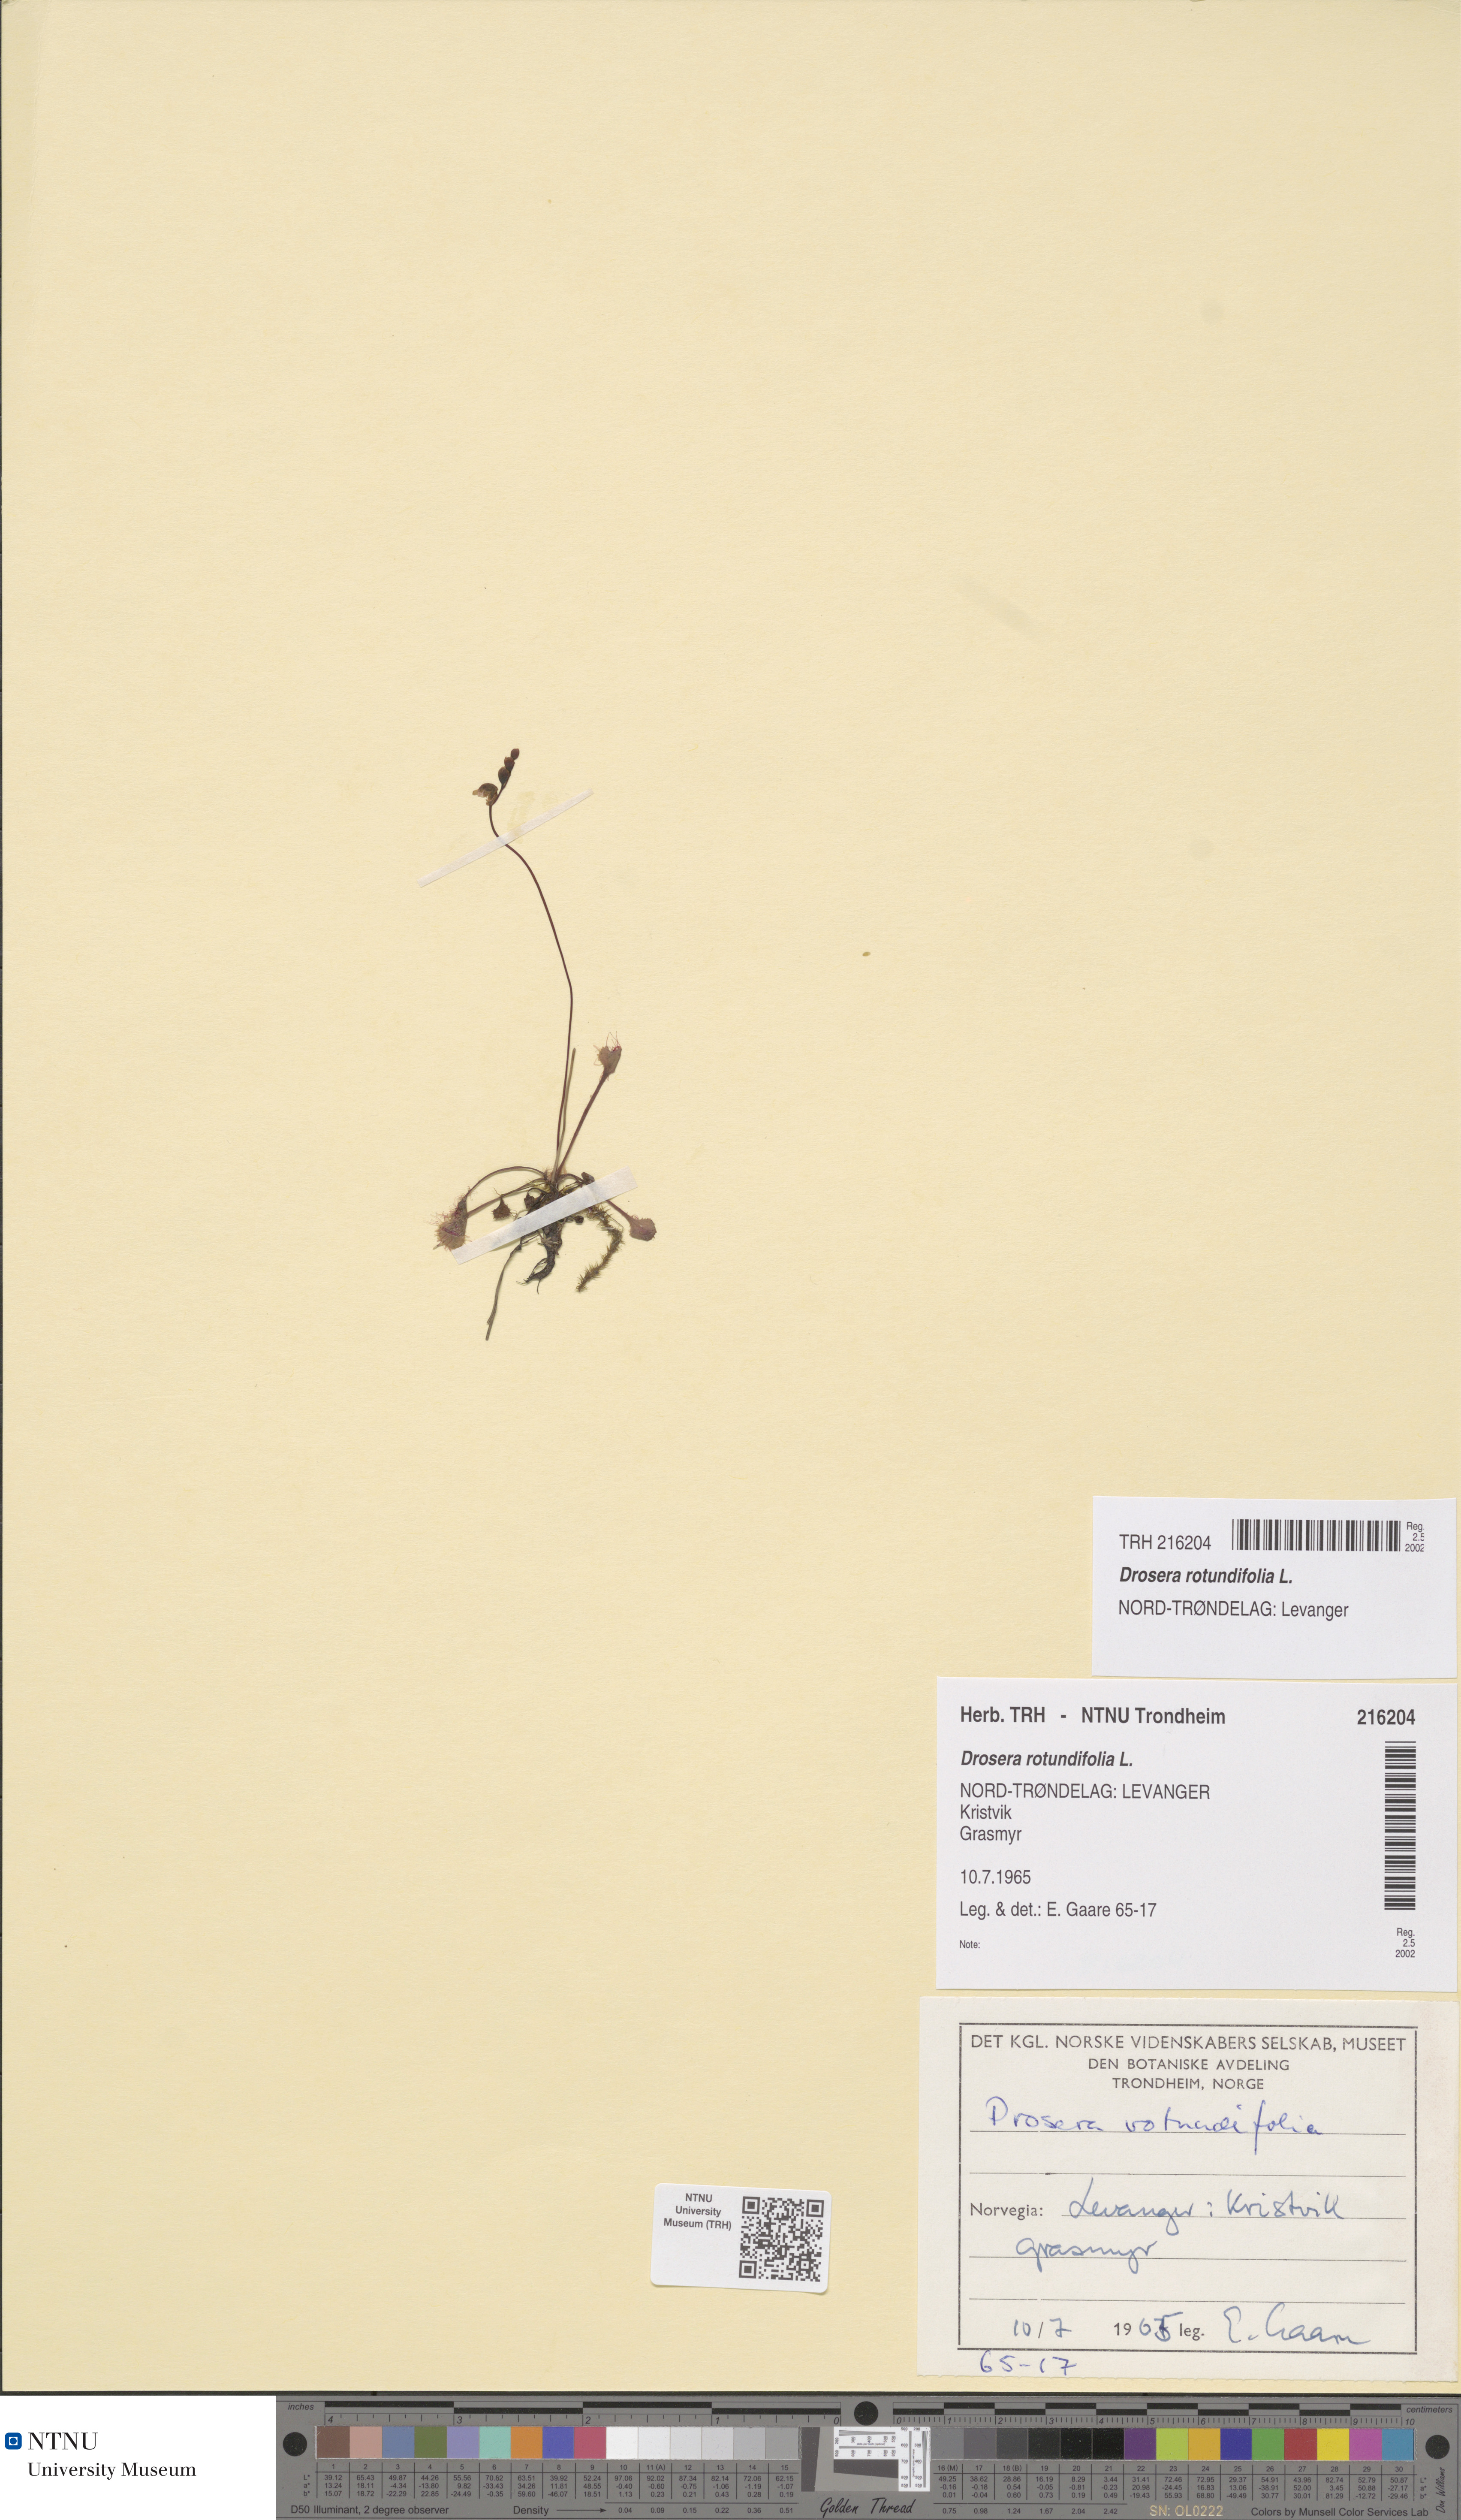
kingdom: Plantae
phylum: Tracheophyta
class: Magnoliopsida
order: Caryophyllales
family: Droseraceae
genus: Drosera
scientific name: Drosera rotundifolia
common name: Round-leaved sundew
